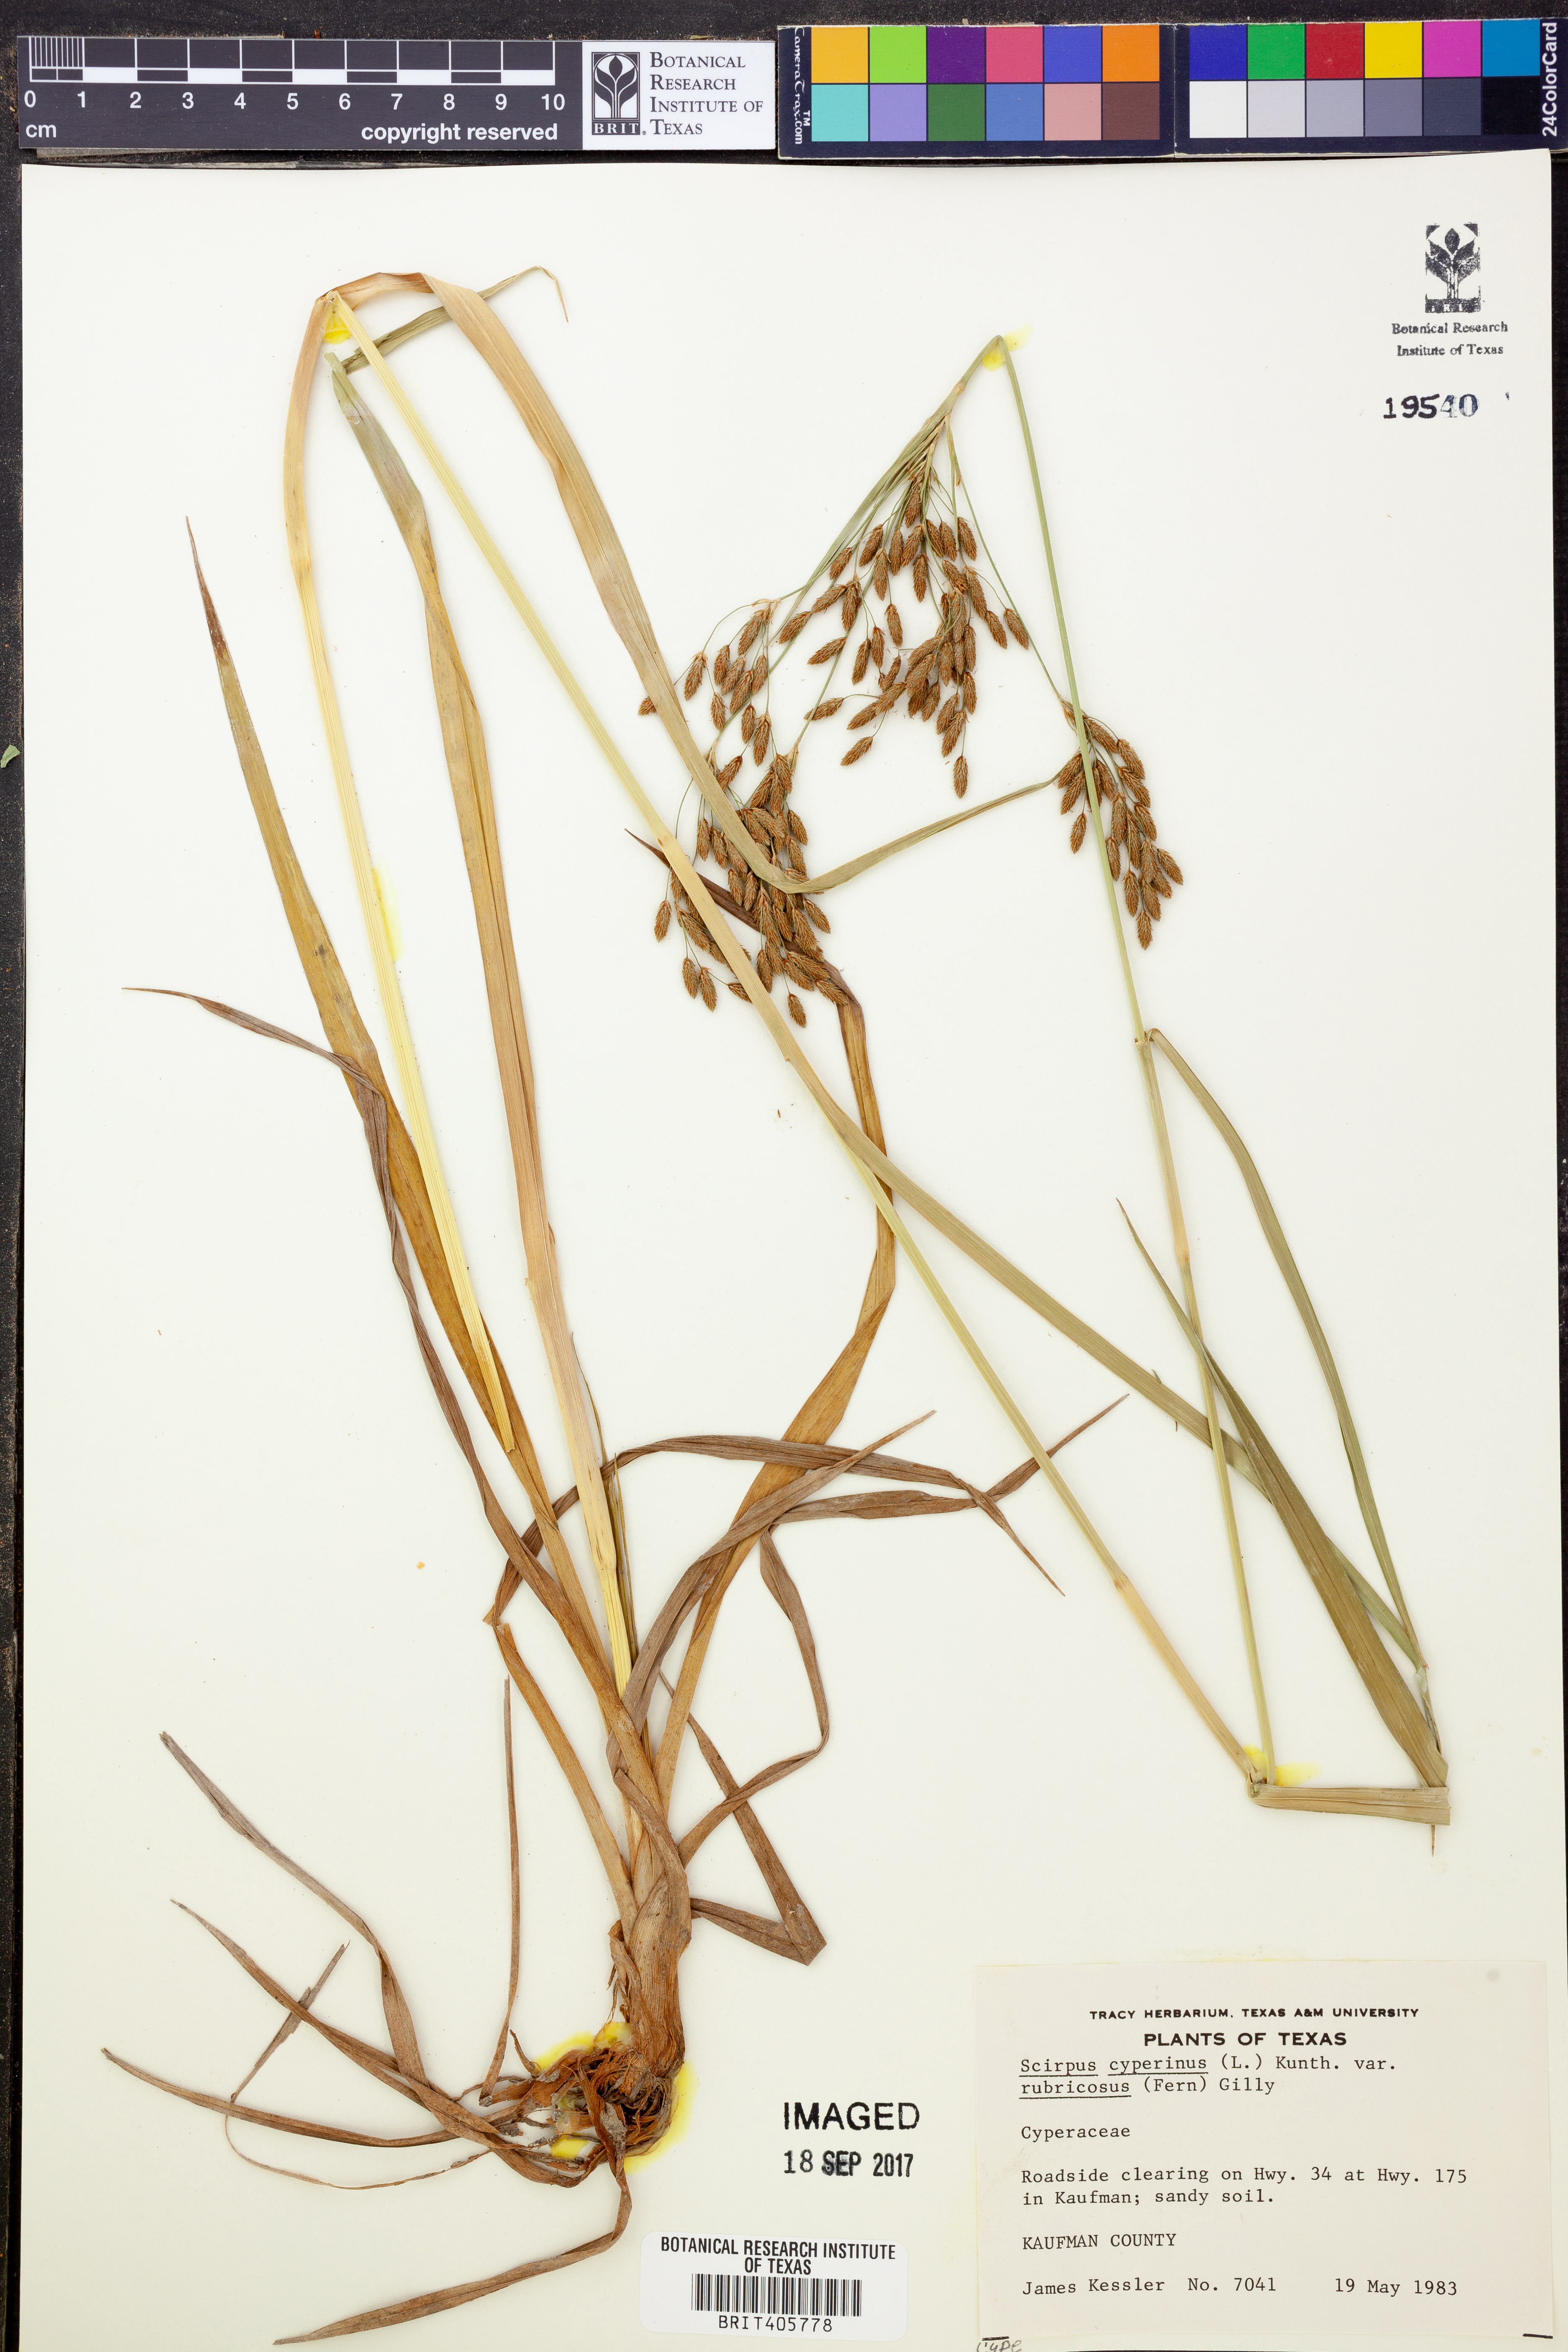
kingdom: Plantae
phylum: Tracheophyta
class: Liliopsida
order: Poales
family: Cyperaceae
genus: Scirpus
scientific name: Scirpus cyperinus
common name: Black-sheathed bulrush
